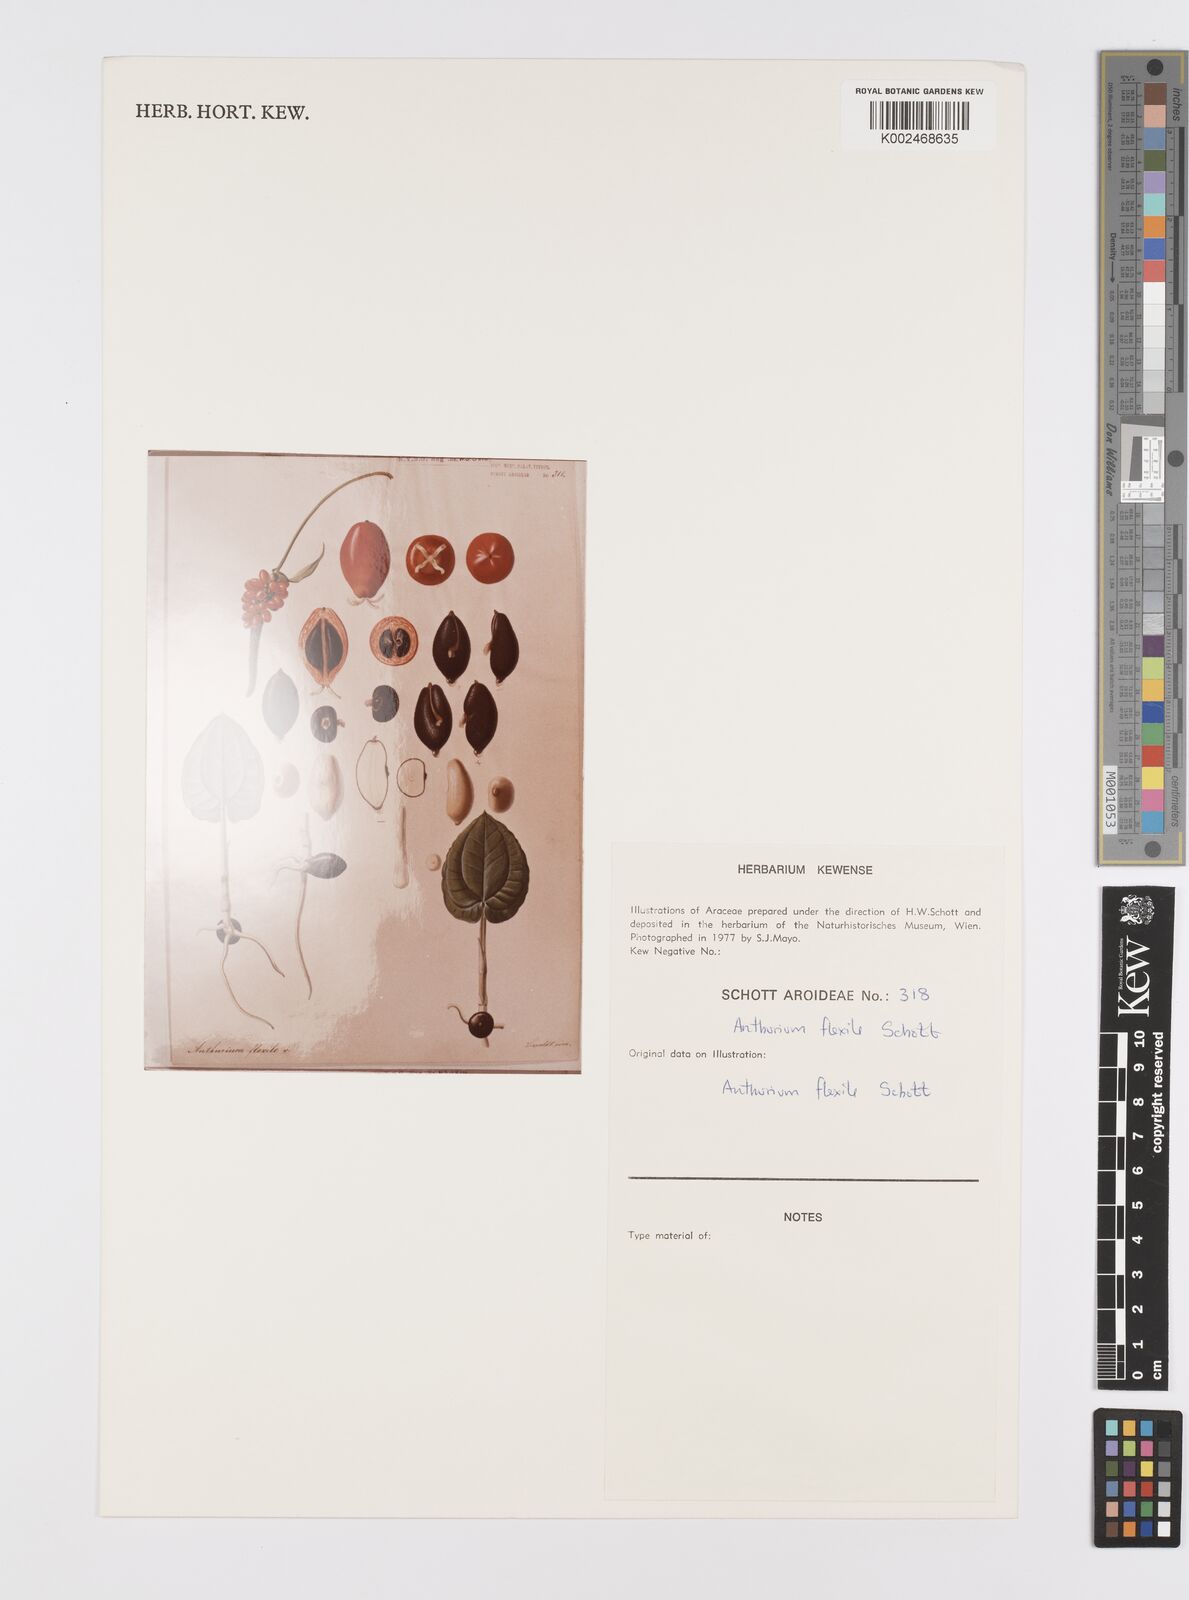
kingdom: Plantae
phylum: Tracheophyta
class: Liliopsida
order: Alismatales
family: Araceae
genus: Anthurium
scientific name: Anthurium flexile
